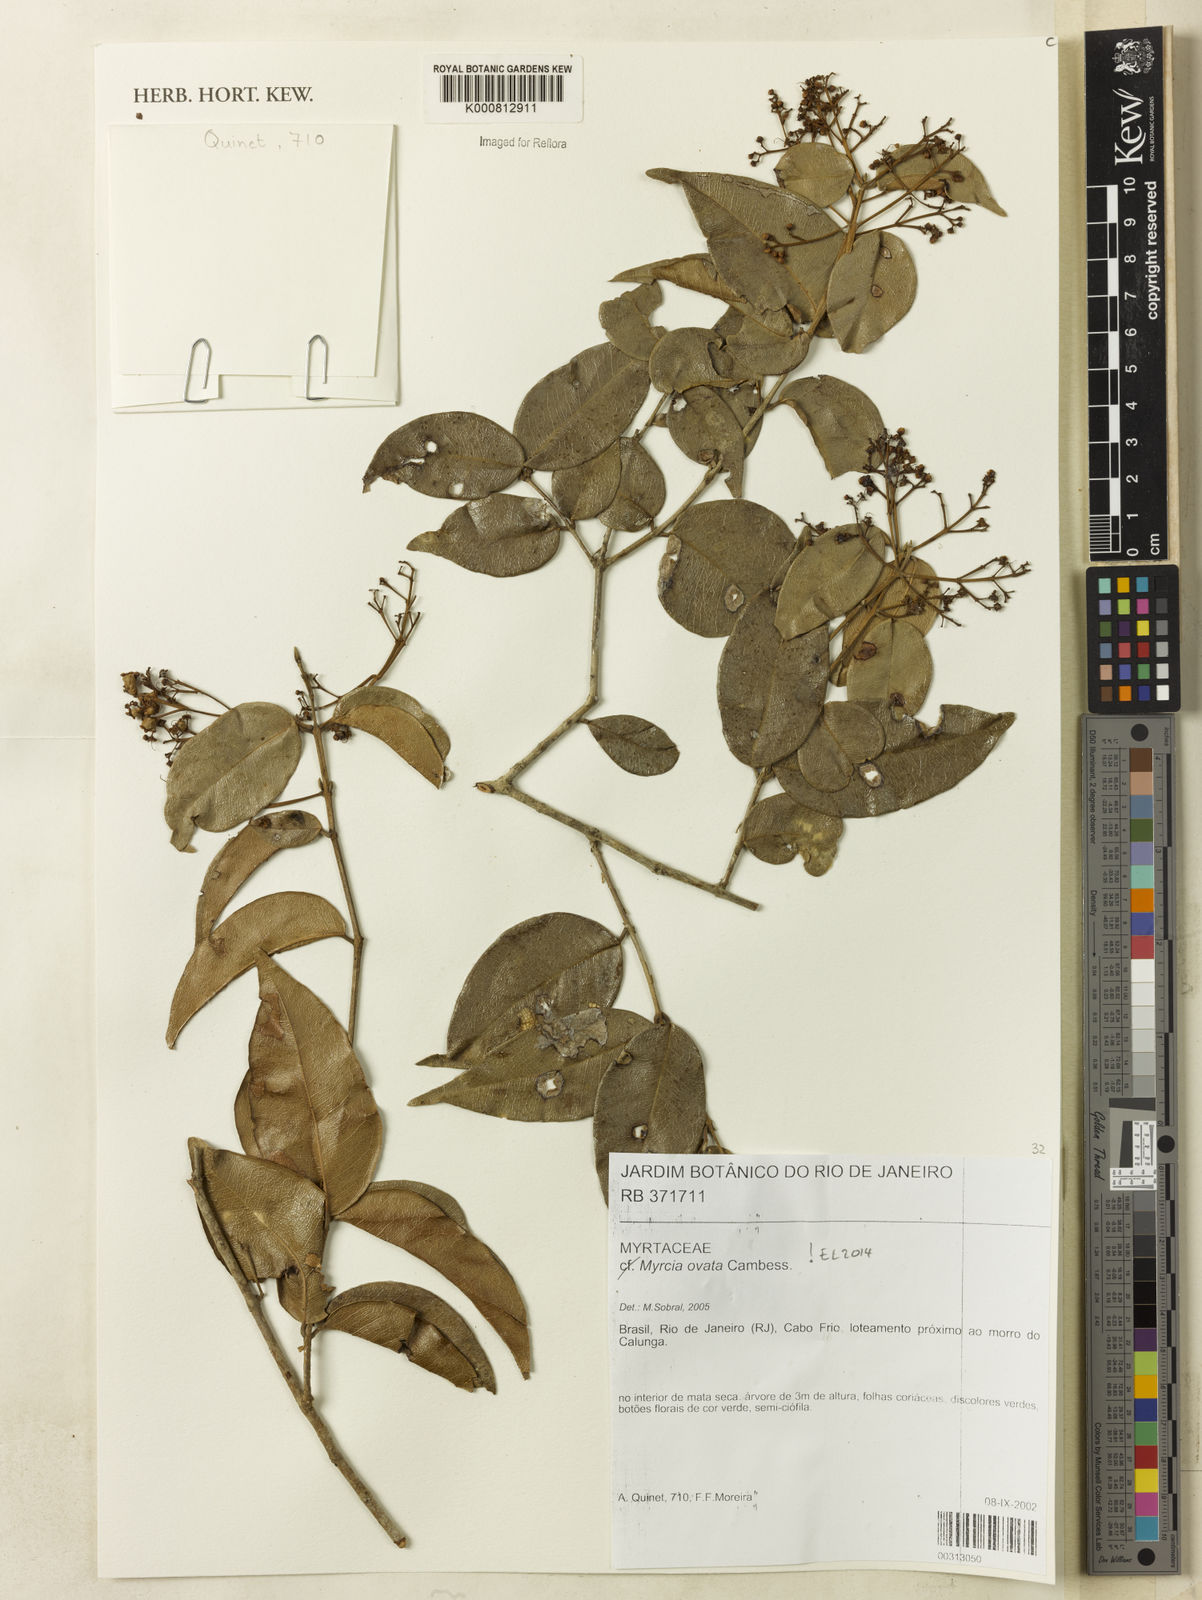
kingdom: Plantae
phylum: Tracheophyta
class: Magnoliopsida
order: Myrtales
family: Myrtaceae
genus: Myrcia
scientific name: Myrcia ovata
